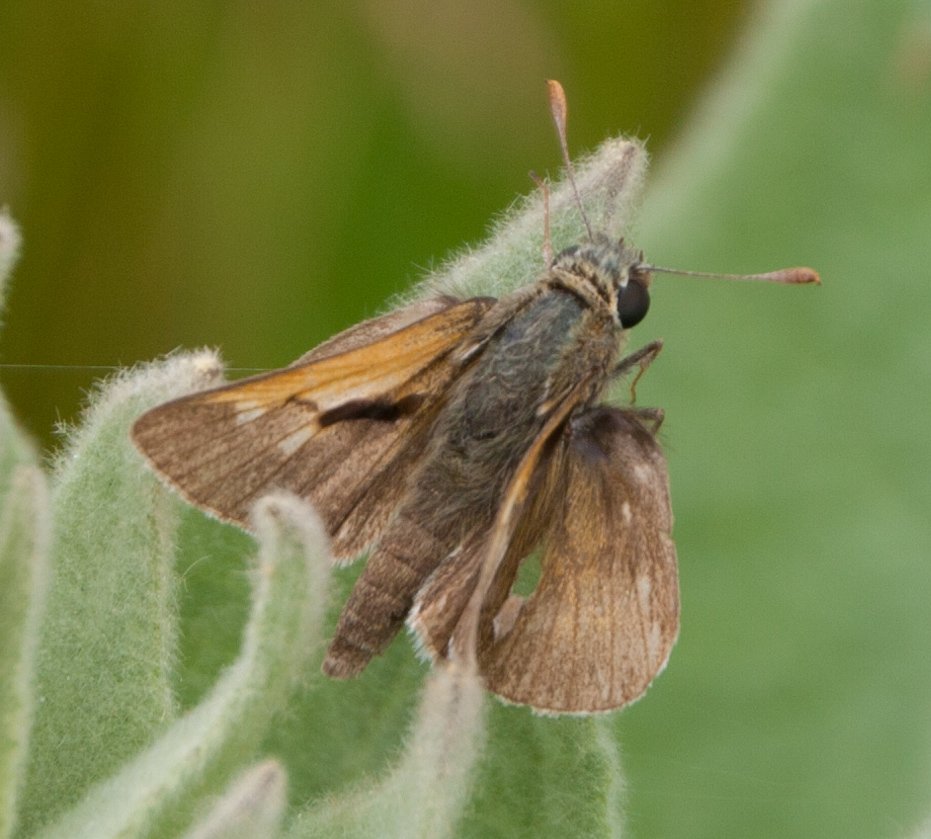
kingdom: Animalia
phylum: Arthropoda
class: Insecta
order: Lepidoptera
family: Hesperiidae
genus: Polites
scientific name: Polites themistocles
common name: Tawny-edged Skipper
